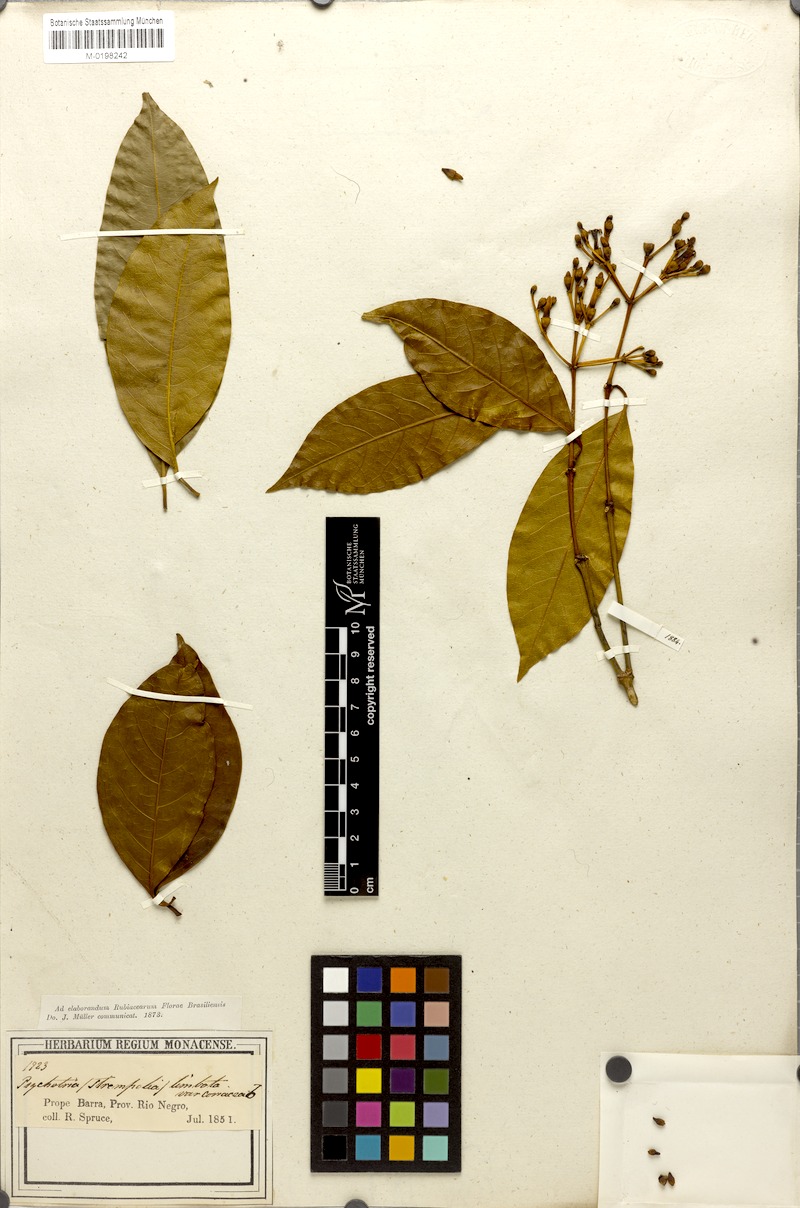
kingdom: Plantae
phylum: Tracheophyta
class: Magnoliopsida
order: Gentianales
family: Rubiaceae
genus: Rudgea
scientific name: Rudgea sclerocalyx
